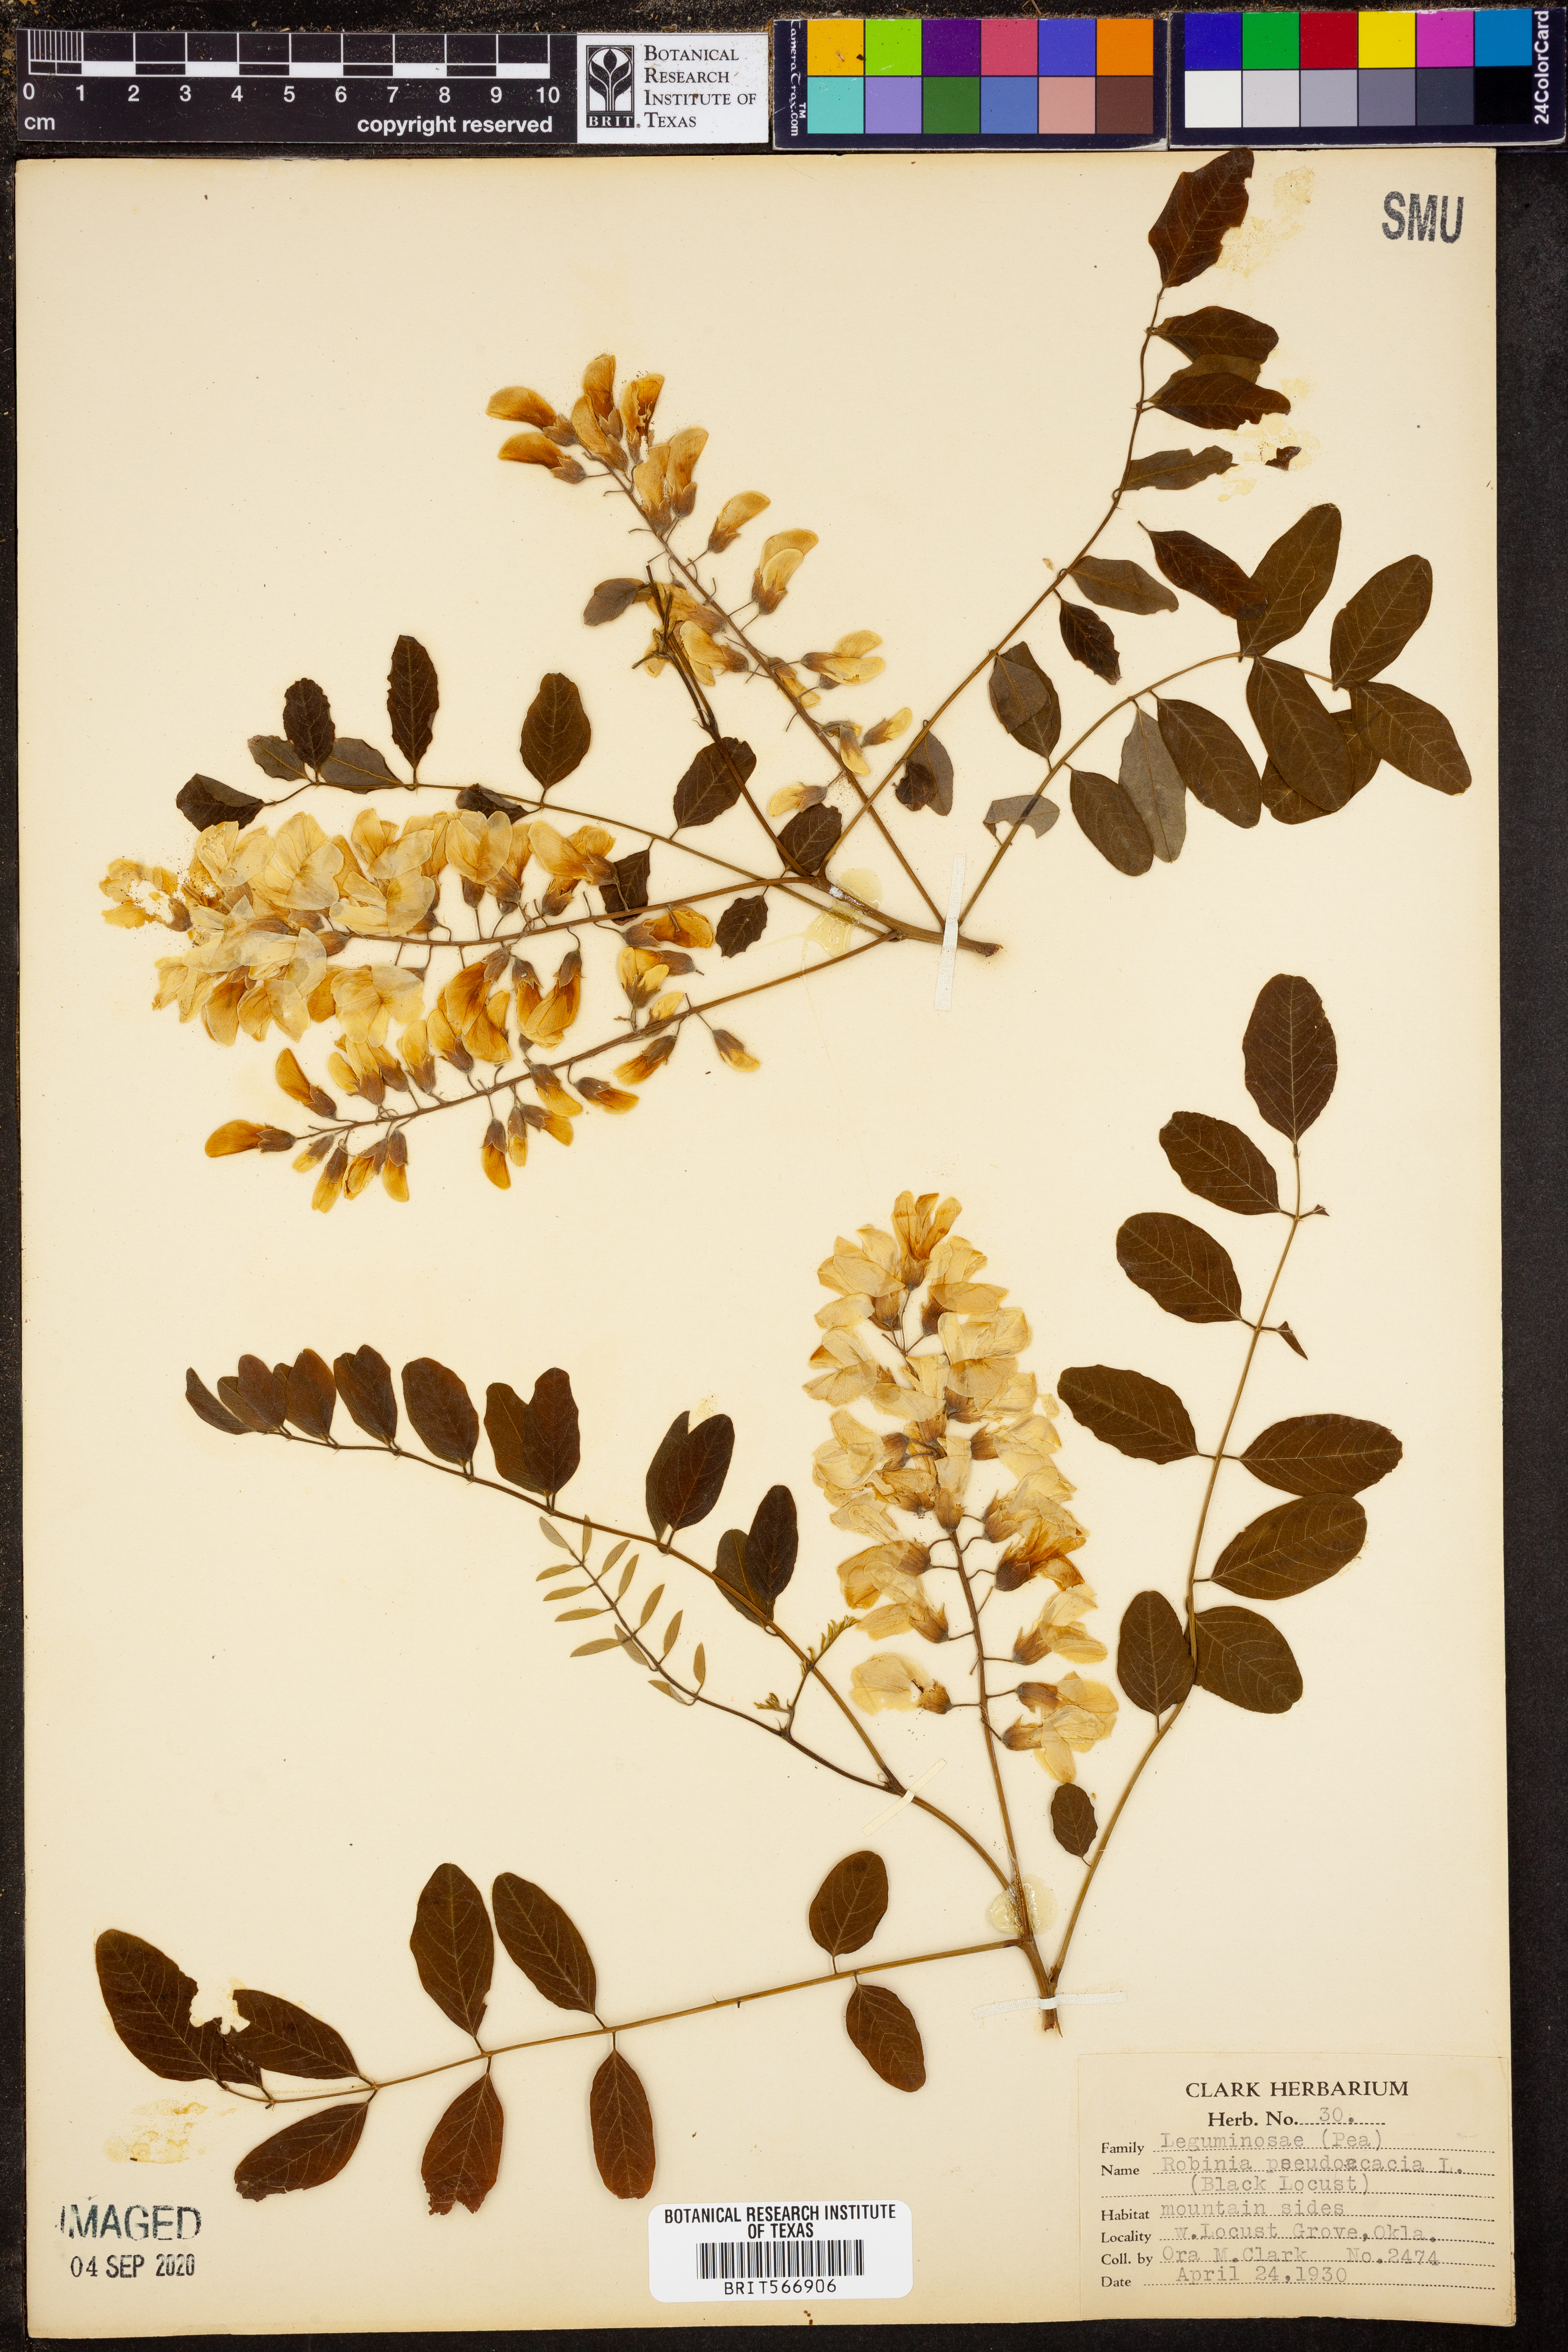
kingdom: Plantae
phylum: Tracheophyta
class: Magnoliopsida
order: Fabales
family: Fabaceae
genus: Robinia
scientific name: Robinia pseudoacacia
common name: Black locust
